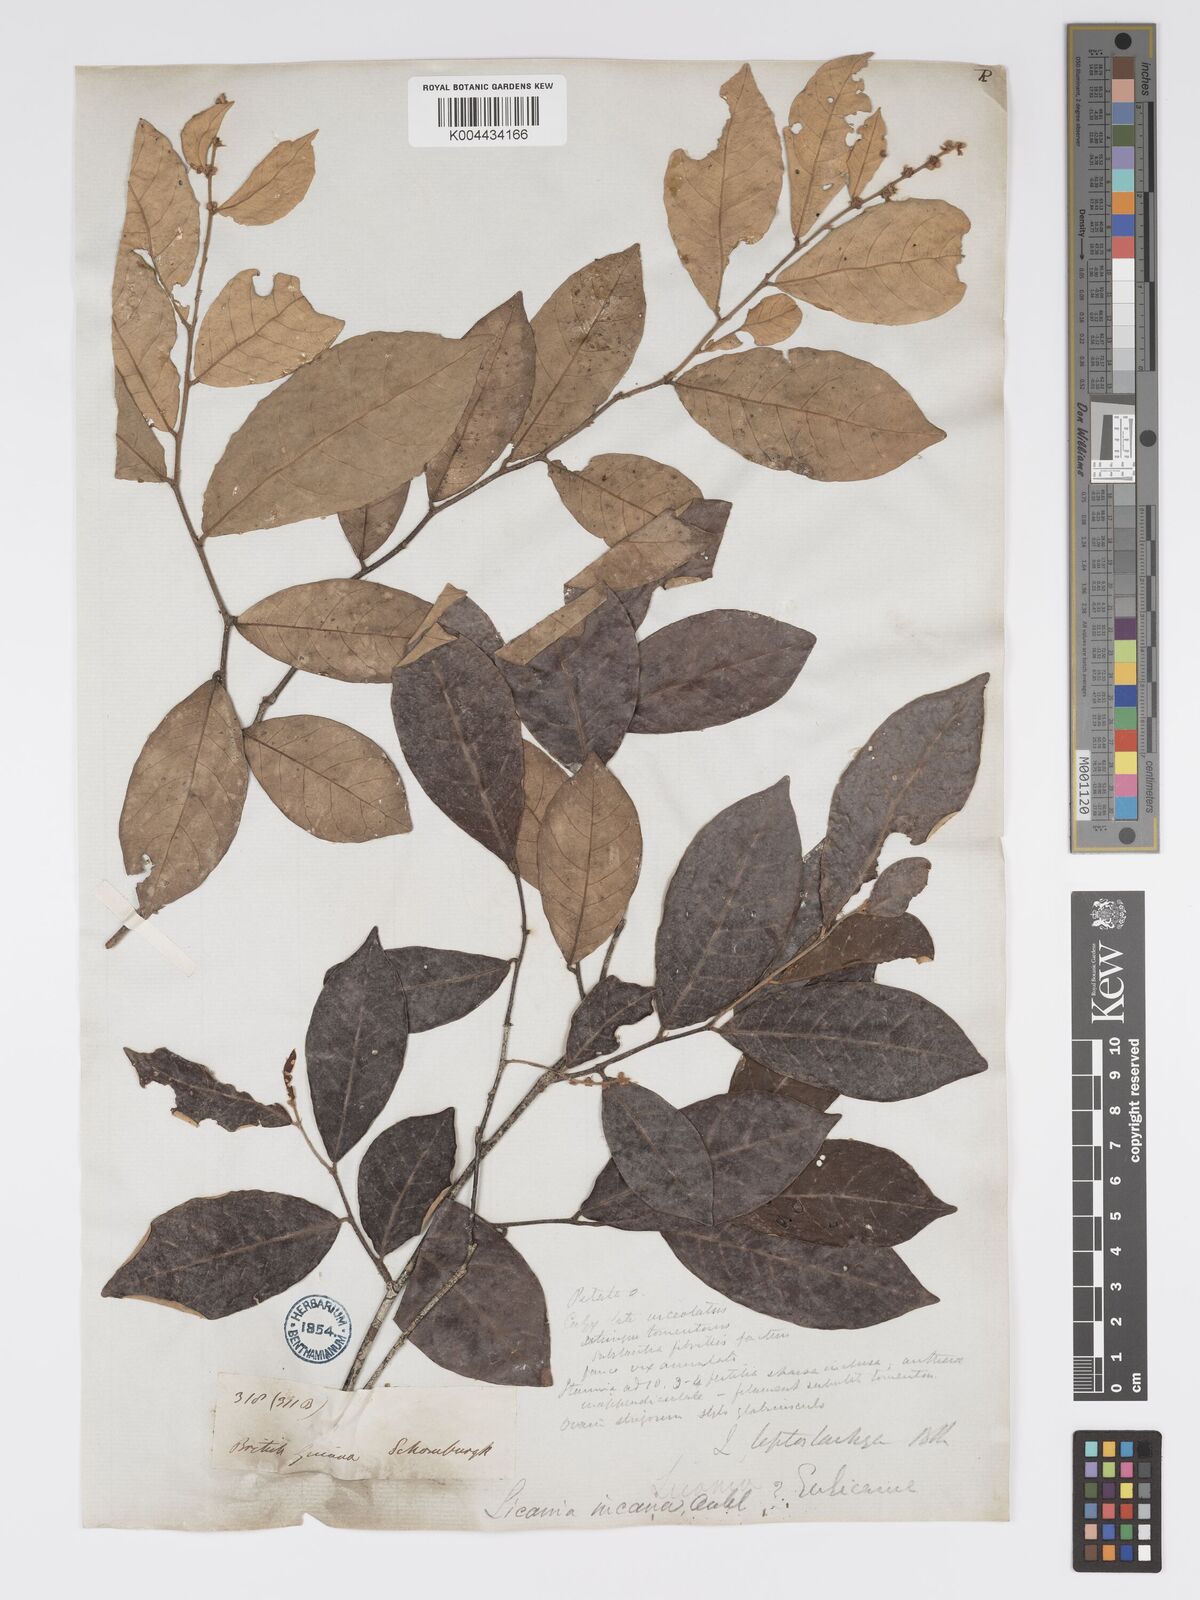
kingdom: Plantae
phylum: Tracheophyta
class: Magnoliopsida
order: Malpighiales
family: Chrysobalanaceae
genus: Licania
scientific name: Licania leptostachya
